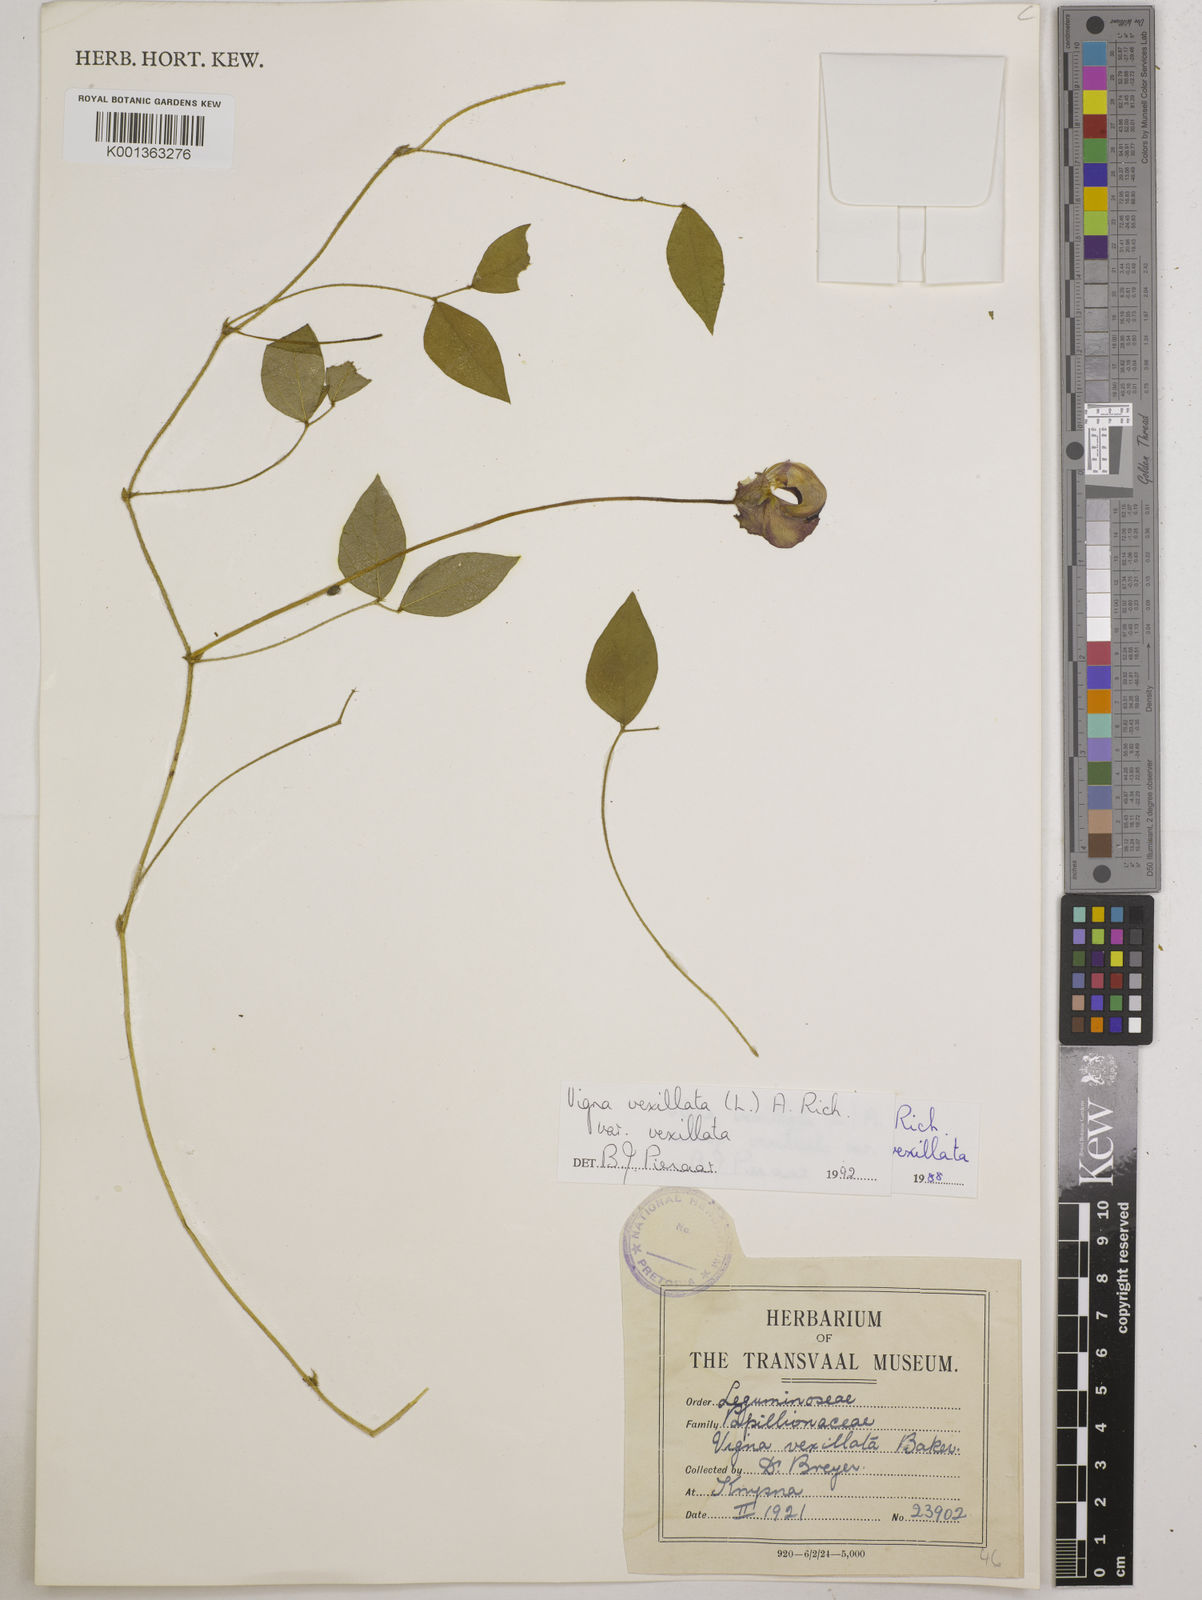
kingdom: Plantae
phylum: Tracheophyta
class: Magnoliopsida
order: Fabales
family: Fabaceae
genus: Vigna
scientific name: Vigna
